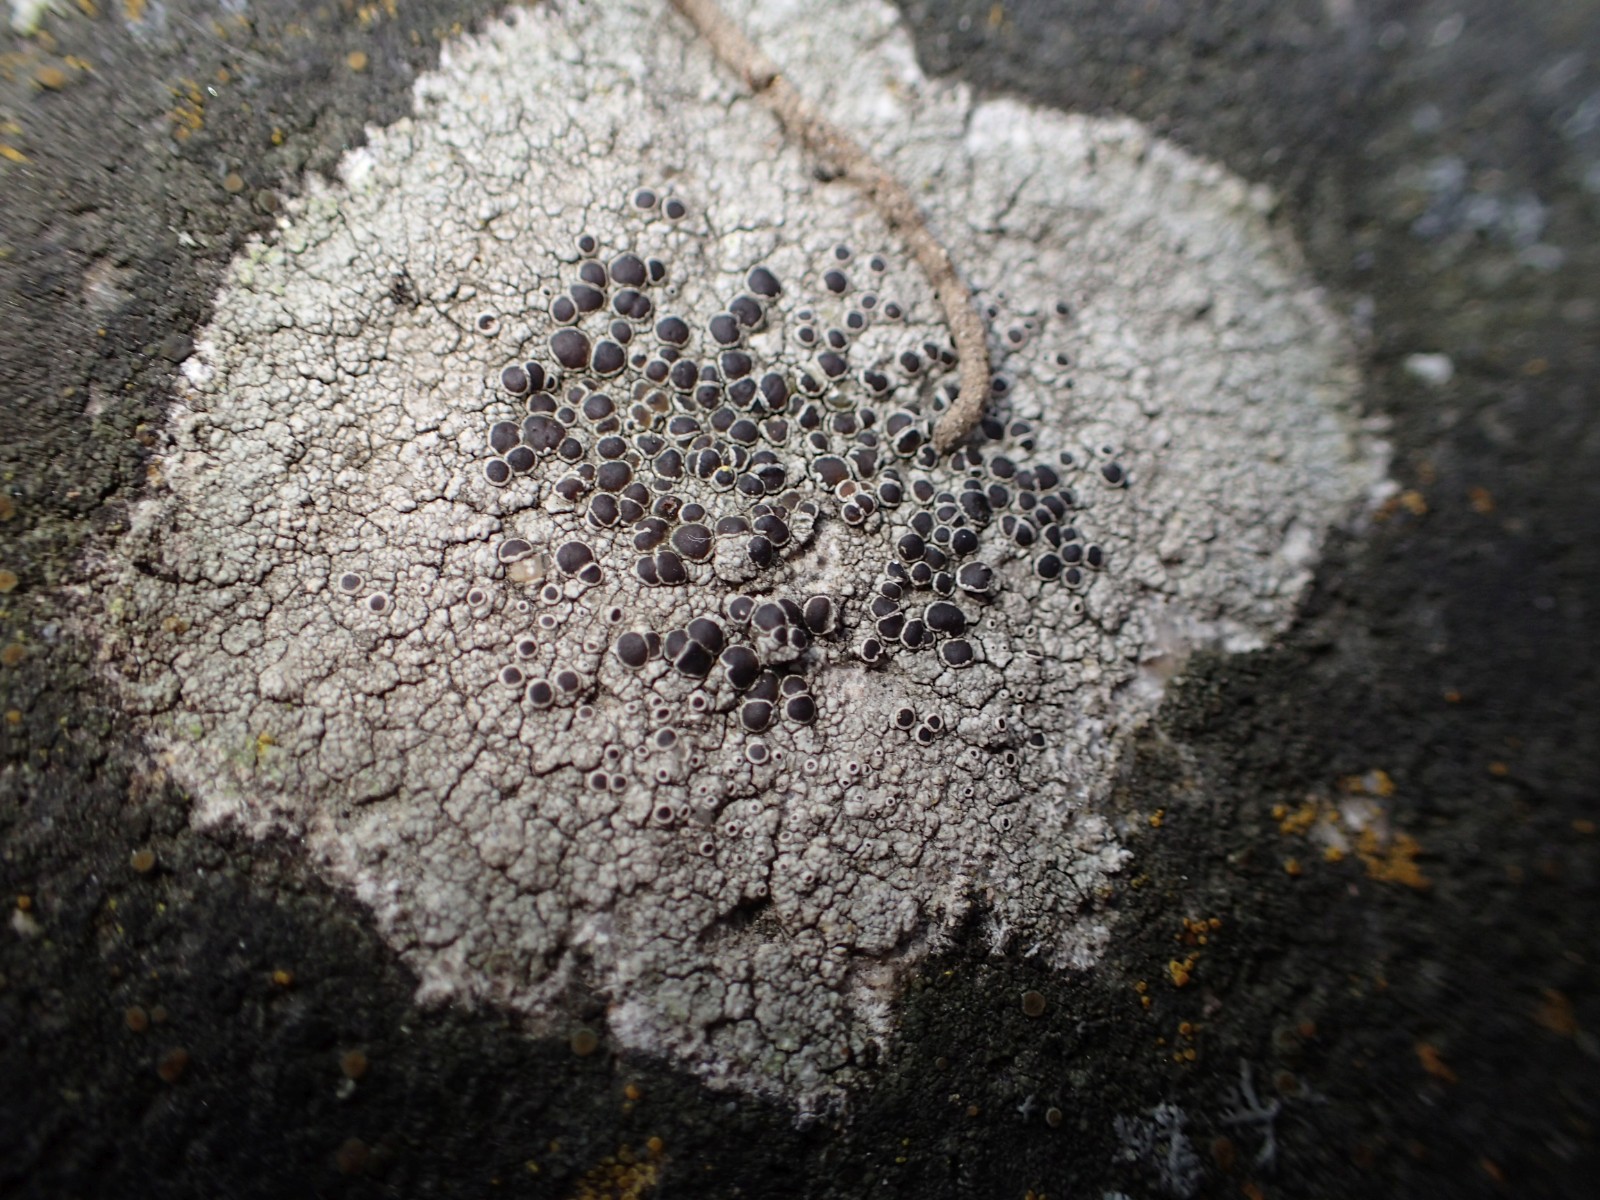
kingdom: Fungi
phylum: Ascomycota
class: Lecanoromycetes
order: Lecanorales
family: Lecanoraceae
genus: Lecanora
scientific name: Lecanora campestris
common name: mur-kantskivelav
